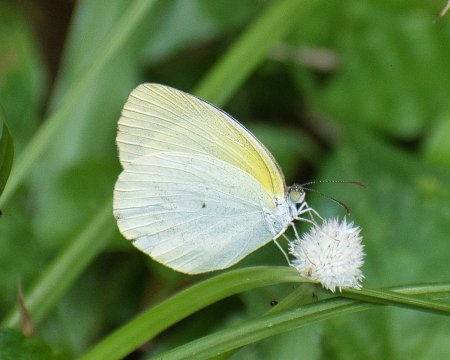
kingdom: Animalia
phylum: Arthropoda
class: Insecta
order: Lepidoptera
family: Pieridae
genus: Pyrisitia
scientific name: Pyrisitia venusta
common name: Pale Yellow
